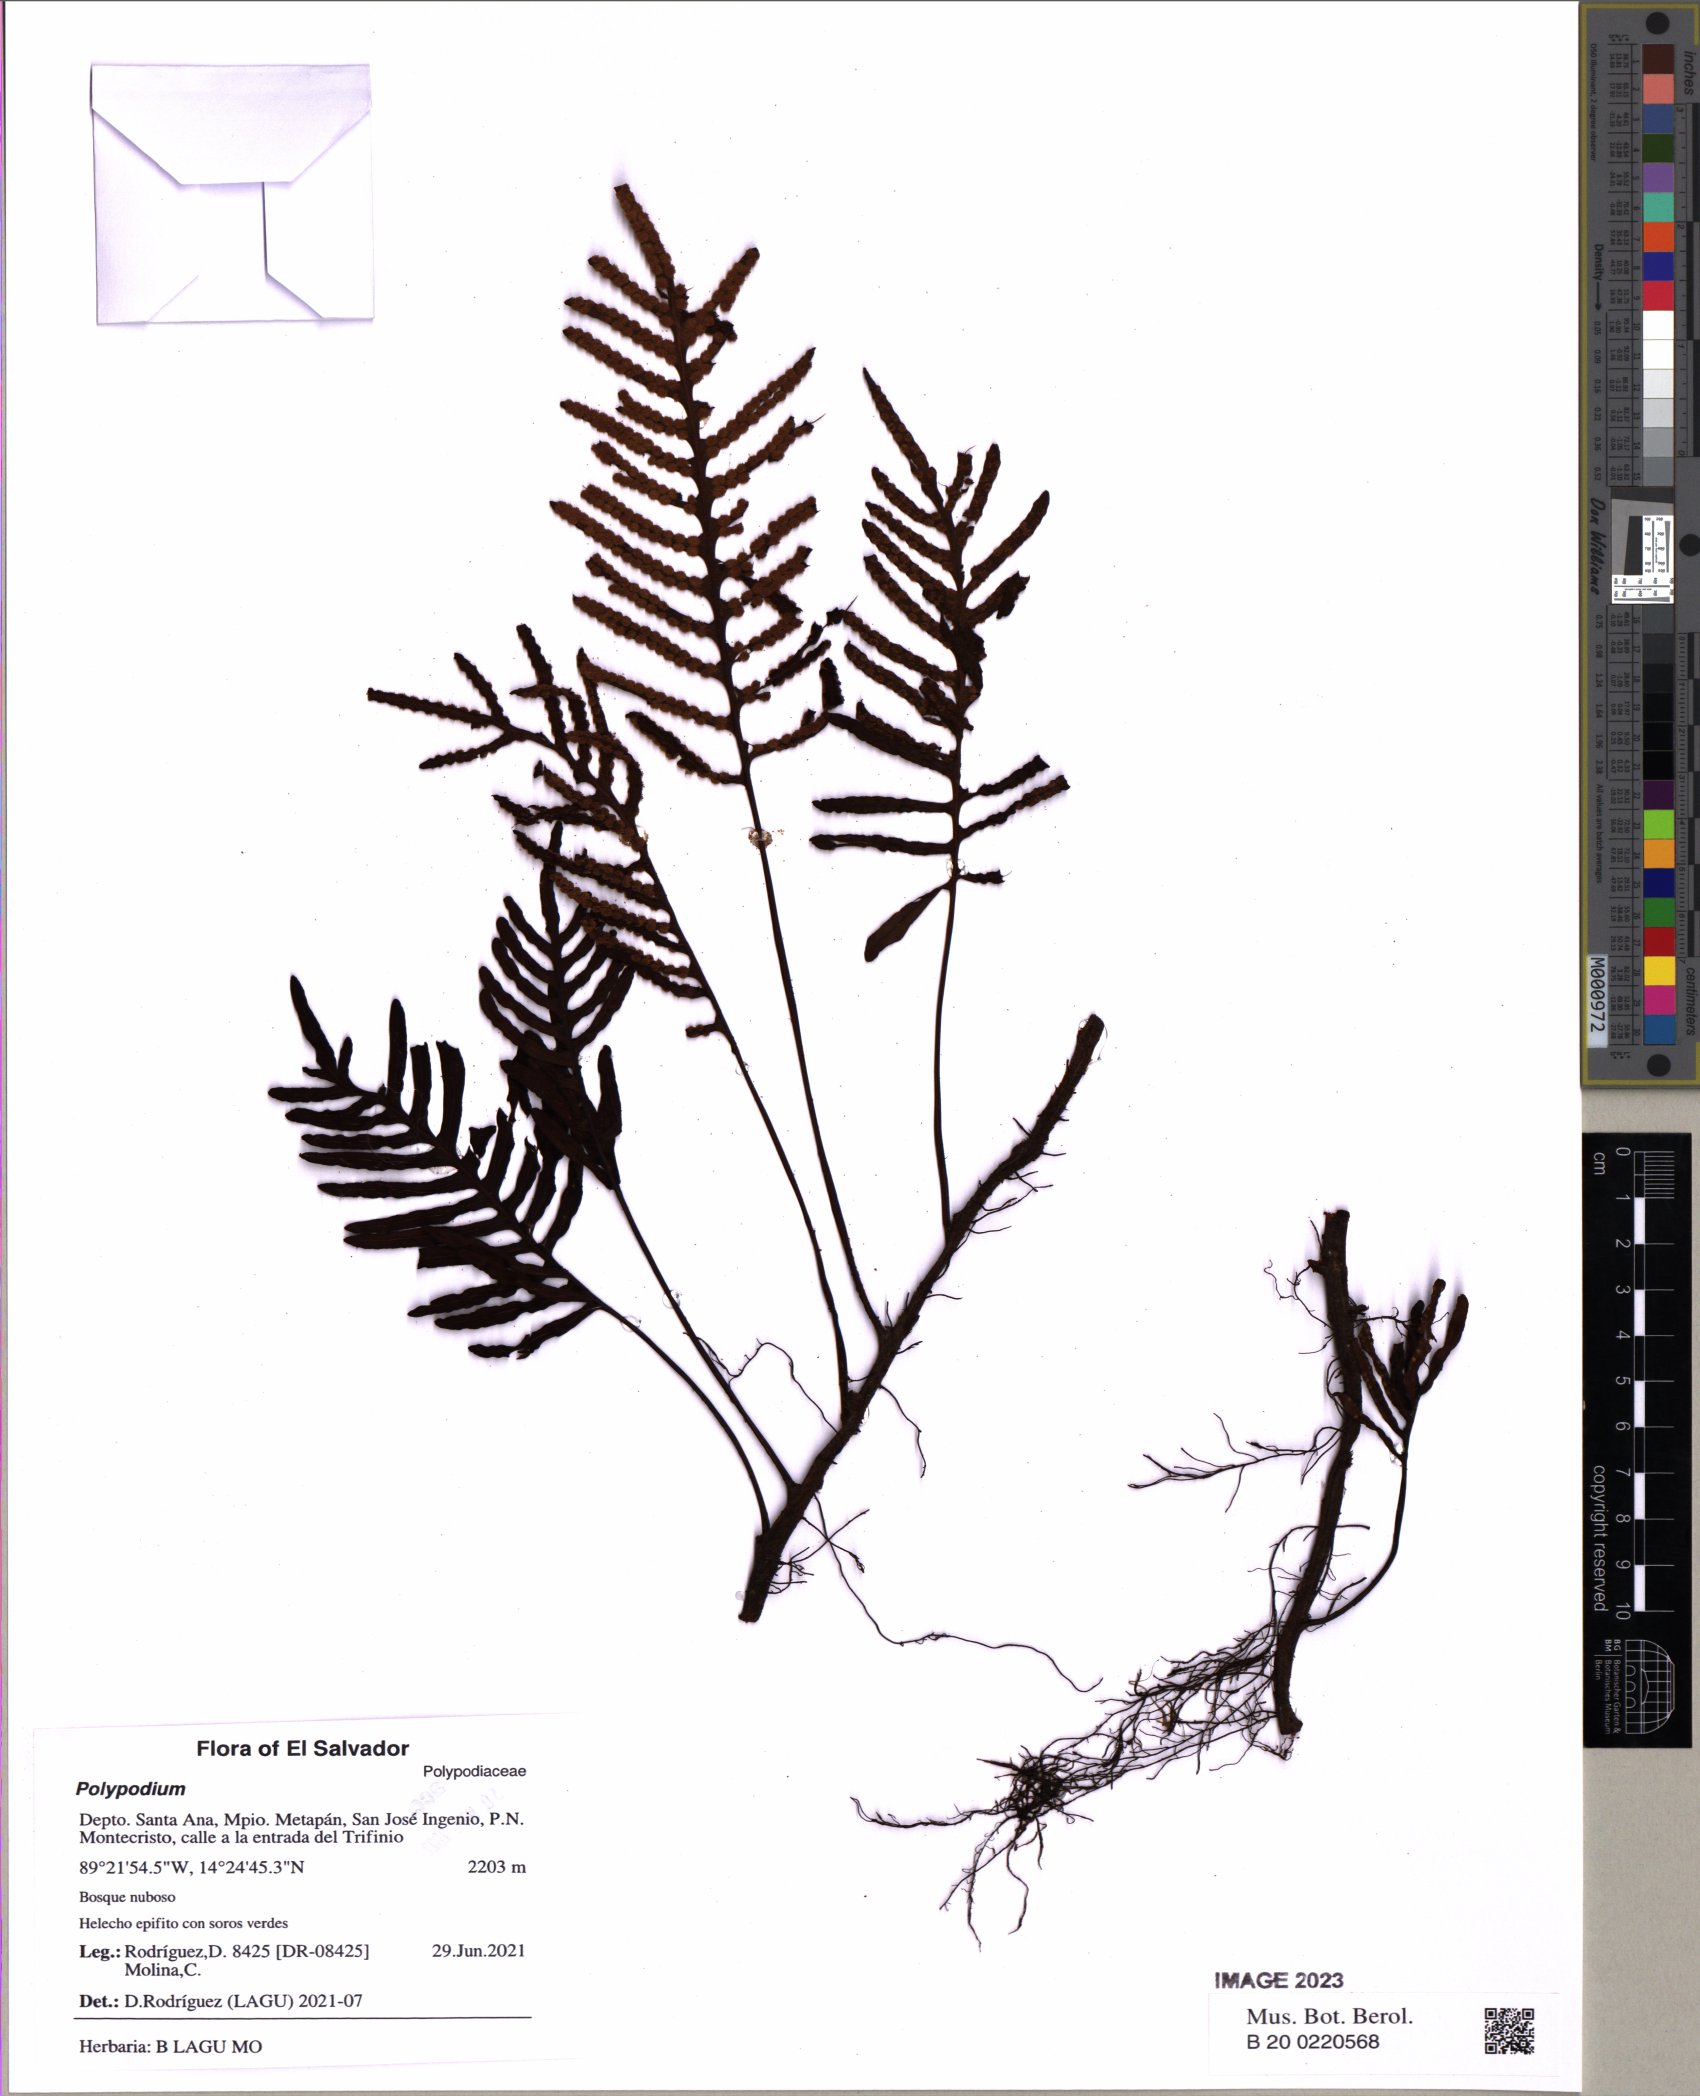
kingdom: Plantae
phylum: Tracheophyta
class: Polypodiopsida
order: Polypodiales
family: Polypodiaceae
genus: Polypodium
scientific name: Polypodium
